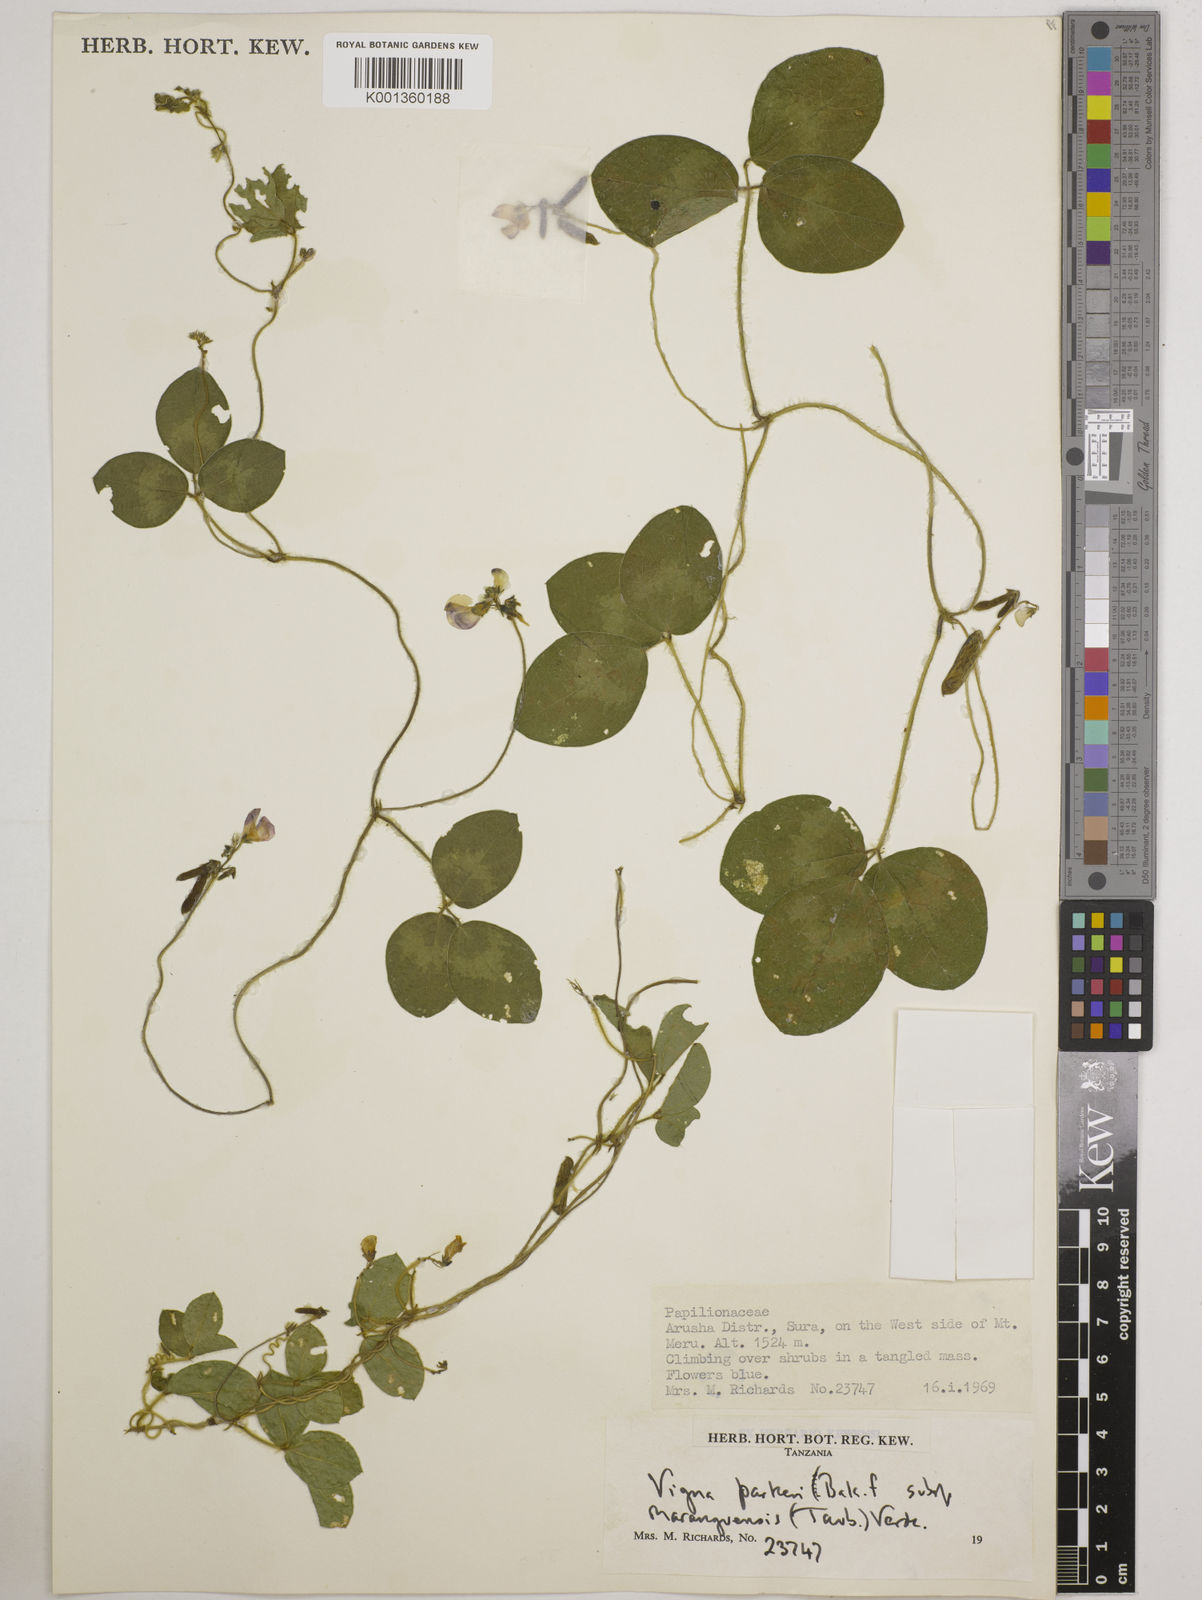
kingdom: Plantae
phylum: Tracheophyta
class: Magnoliopsida
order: Fabales
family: Fabaceae
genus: Vigna
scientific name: Vigna
